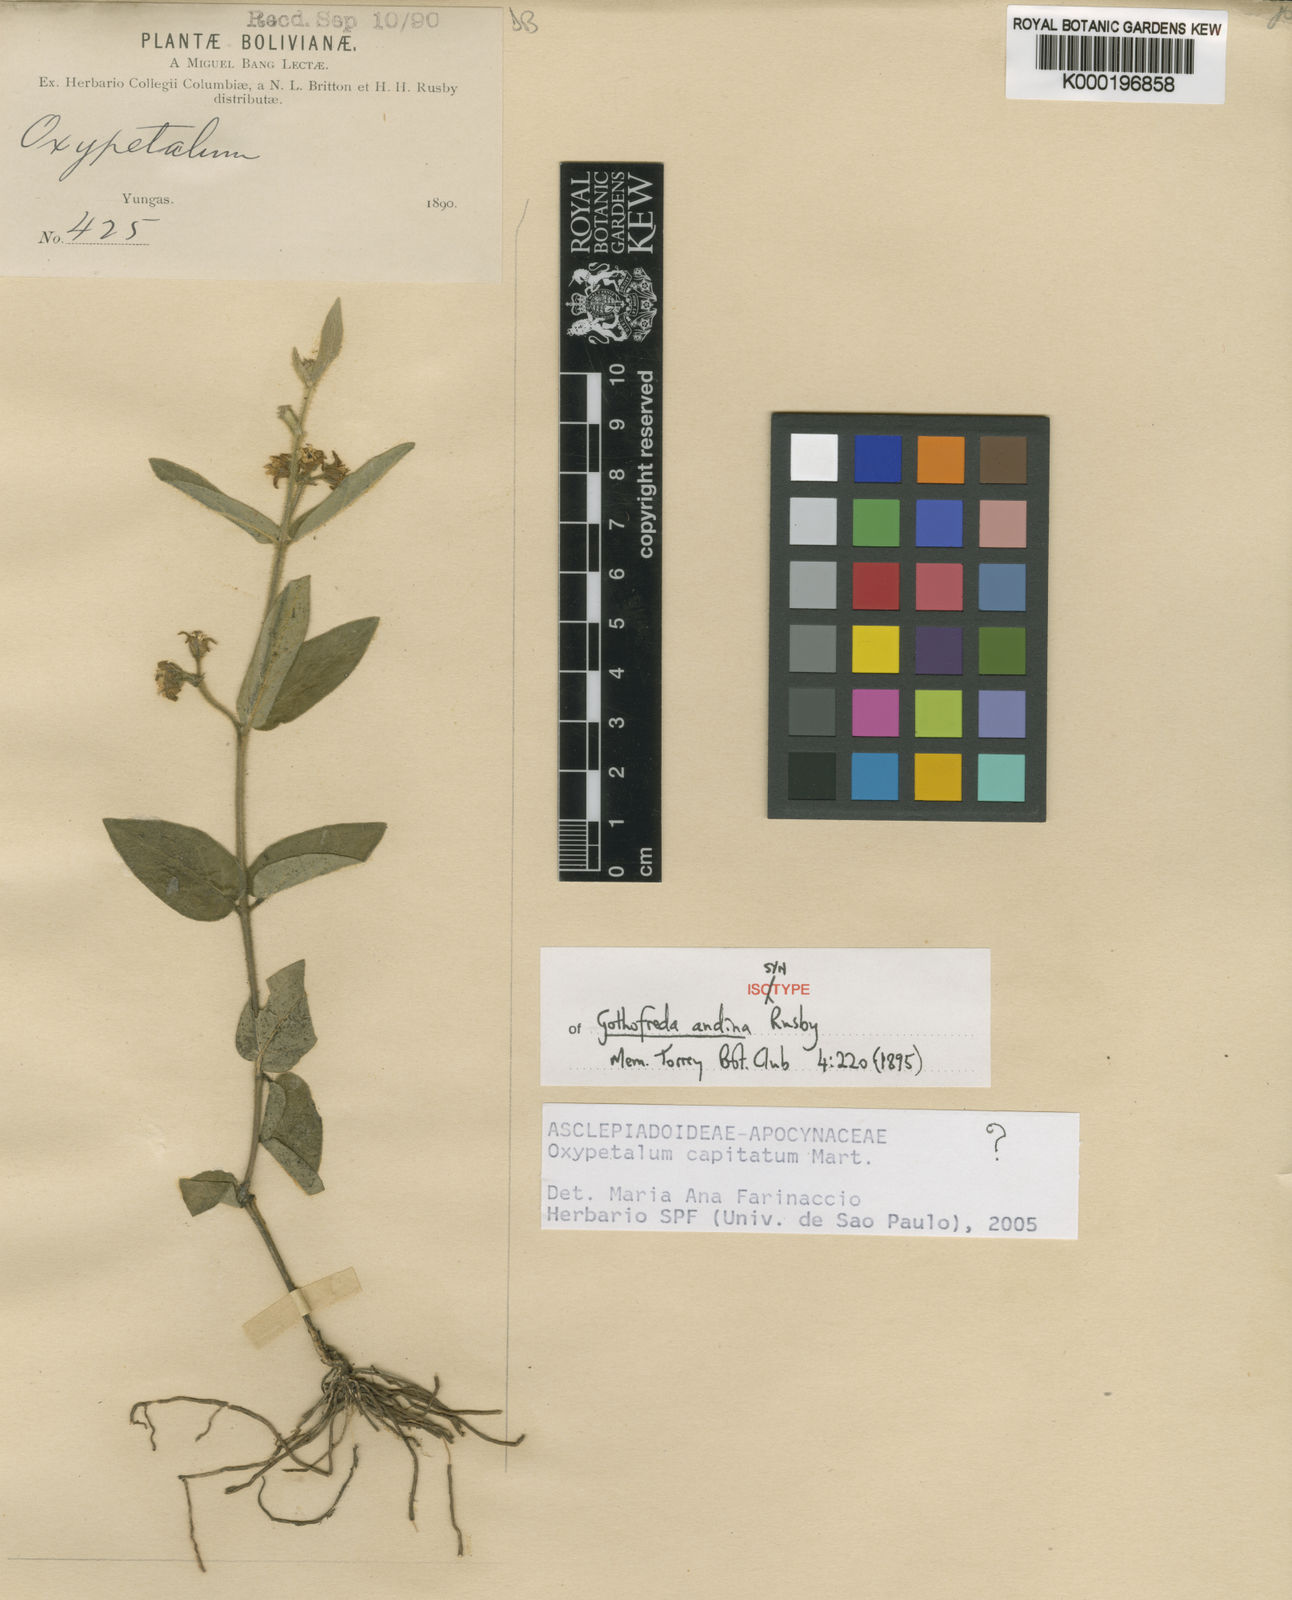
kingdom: Plantae
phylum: Tracheophyta
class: Magnoliopsida
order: Gentianales
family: Apocynaceae
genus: Oxypetalum
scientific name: Oxypetalum capitatum
